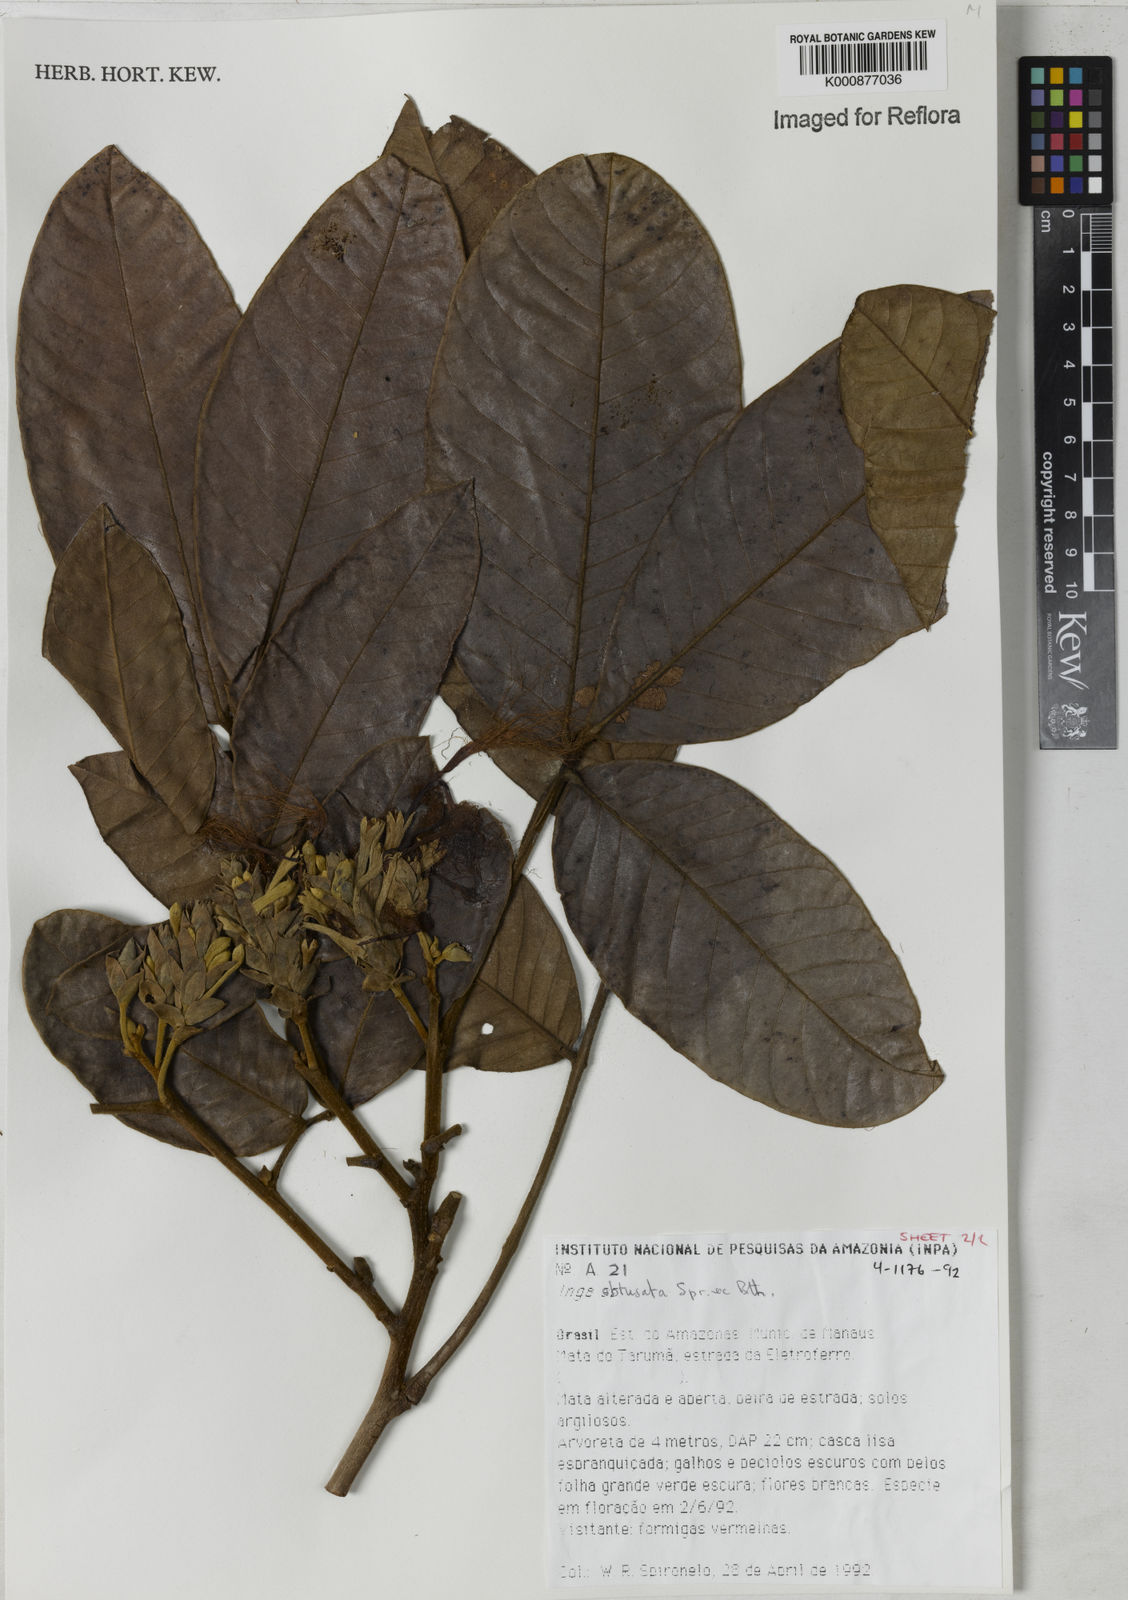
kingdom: Plantae
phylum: Tracheophyta
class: Magnoliopsida
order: Fabales
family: Fabaceae
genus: Inga
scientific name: Inga obtusata
